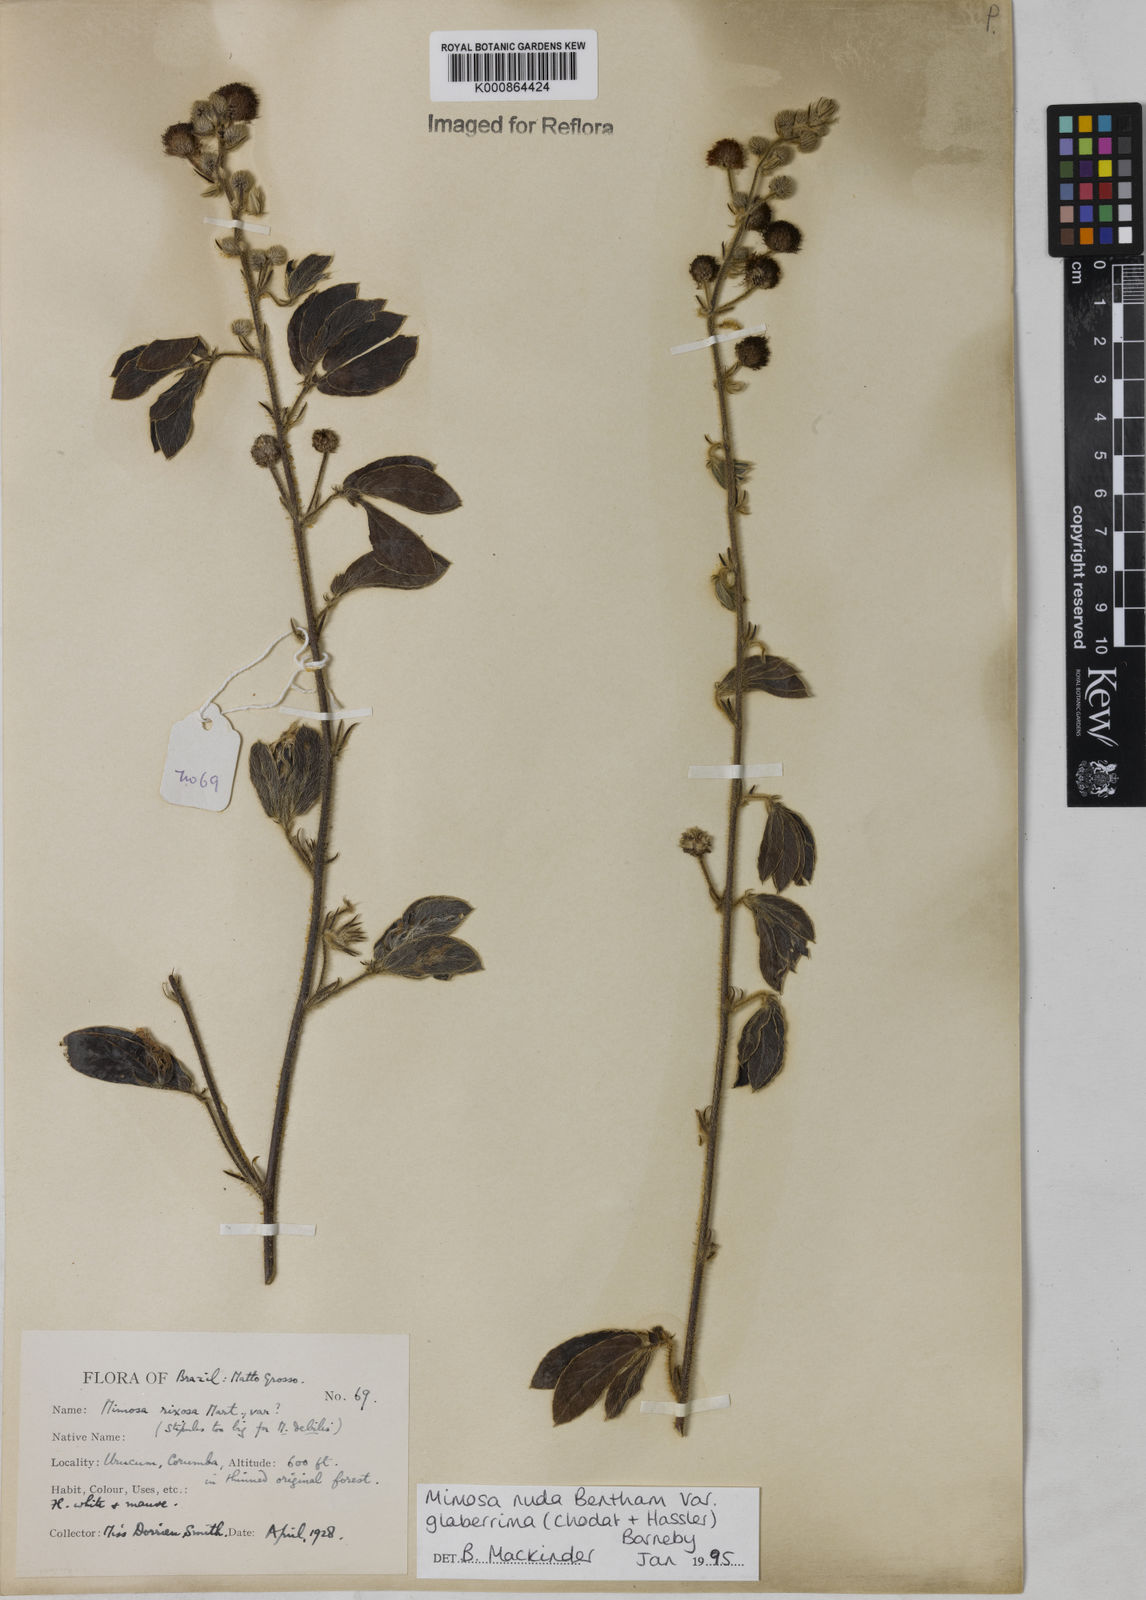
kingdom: Plantae
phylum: Tracheophyta
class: Magnoliopsida
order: Fabales
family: Fabaceae
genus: Mimosa
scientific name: Mimosa debilis
